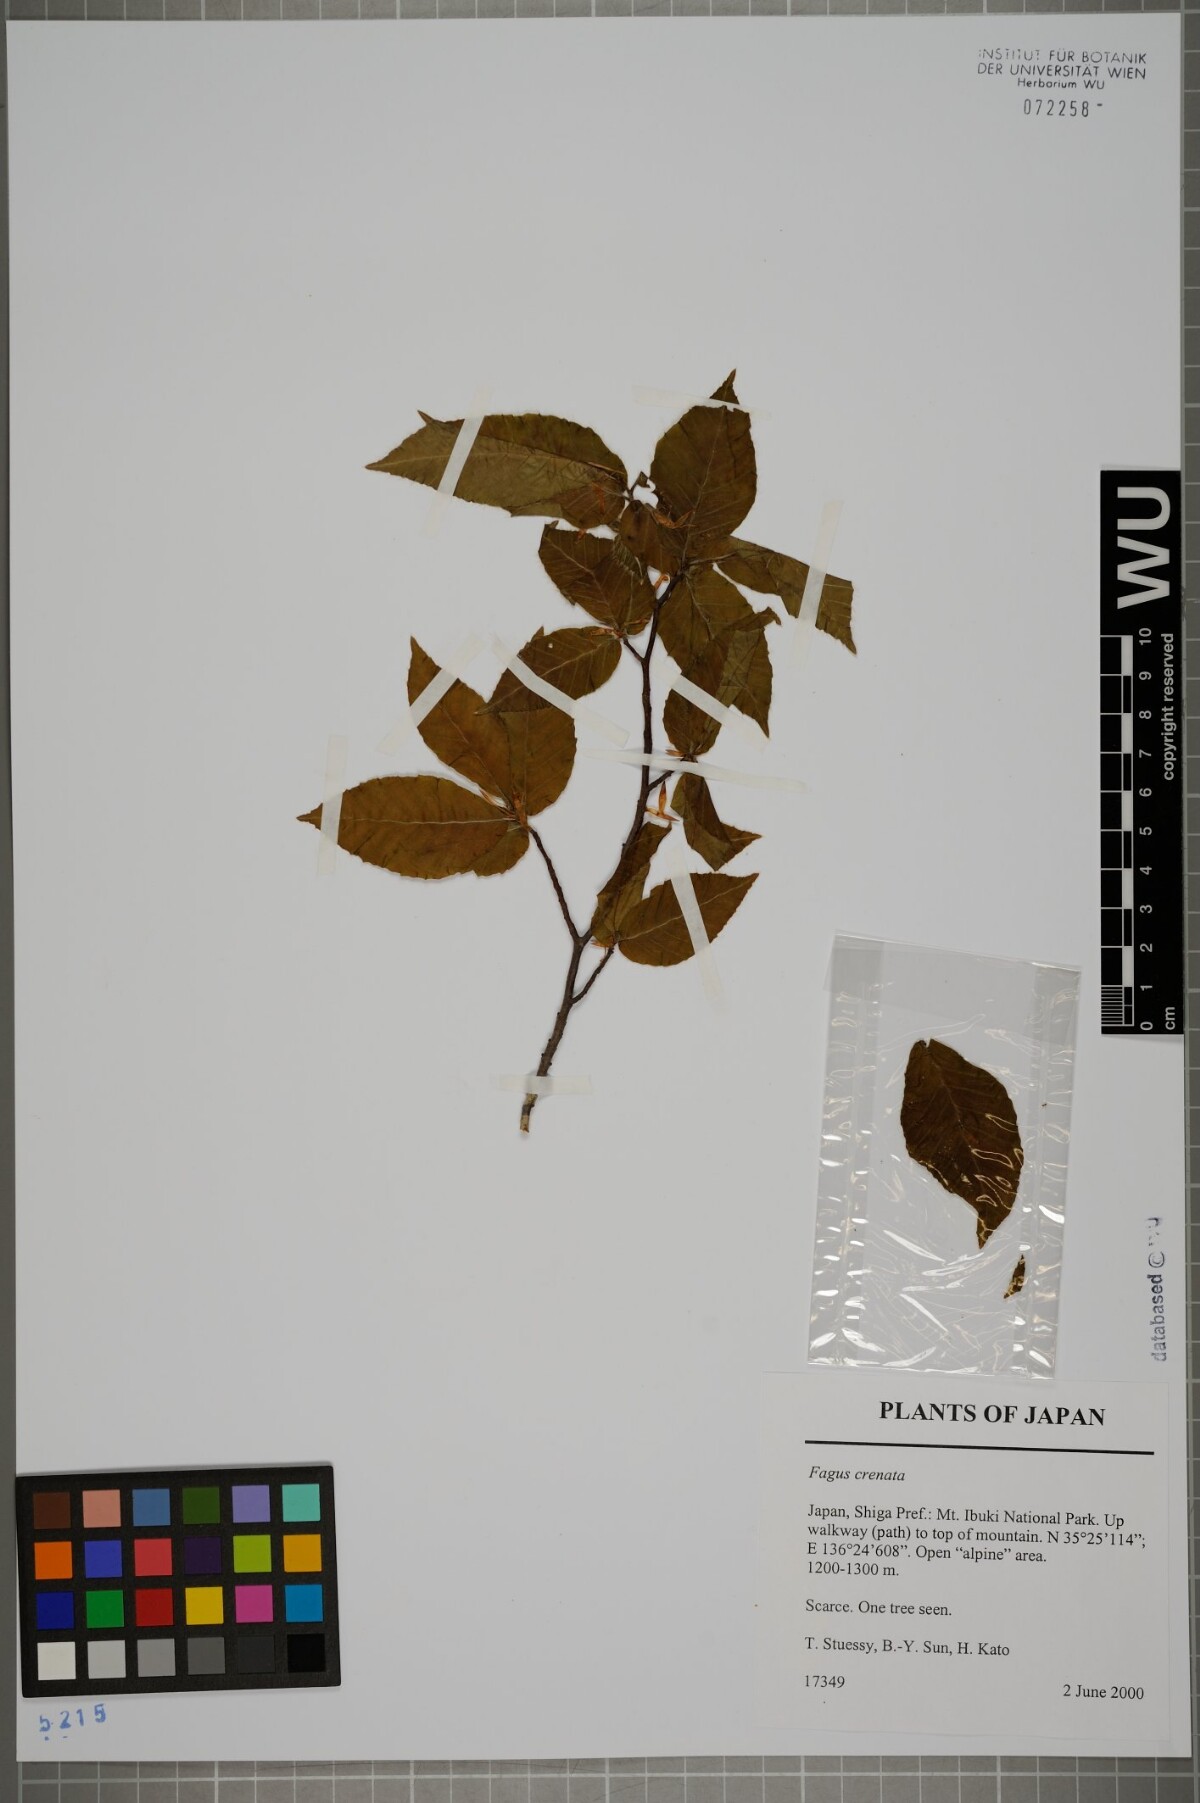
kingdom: Plantae
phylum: Tracheophyta
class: Magnoliopsida
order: Fagales
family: Fagaceae
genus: Fagus
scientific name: Fagus crenata
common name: Japanese beech
